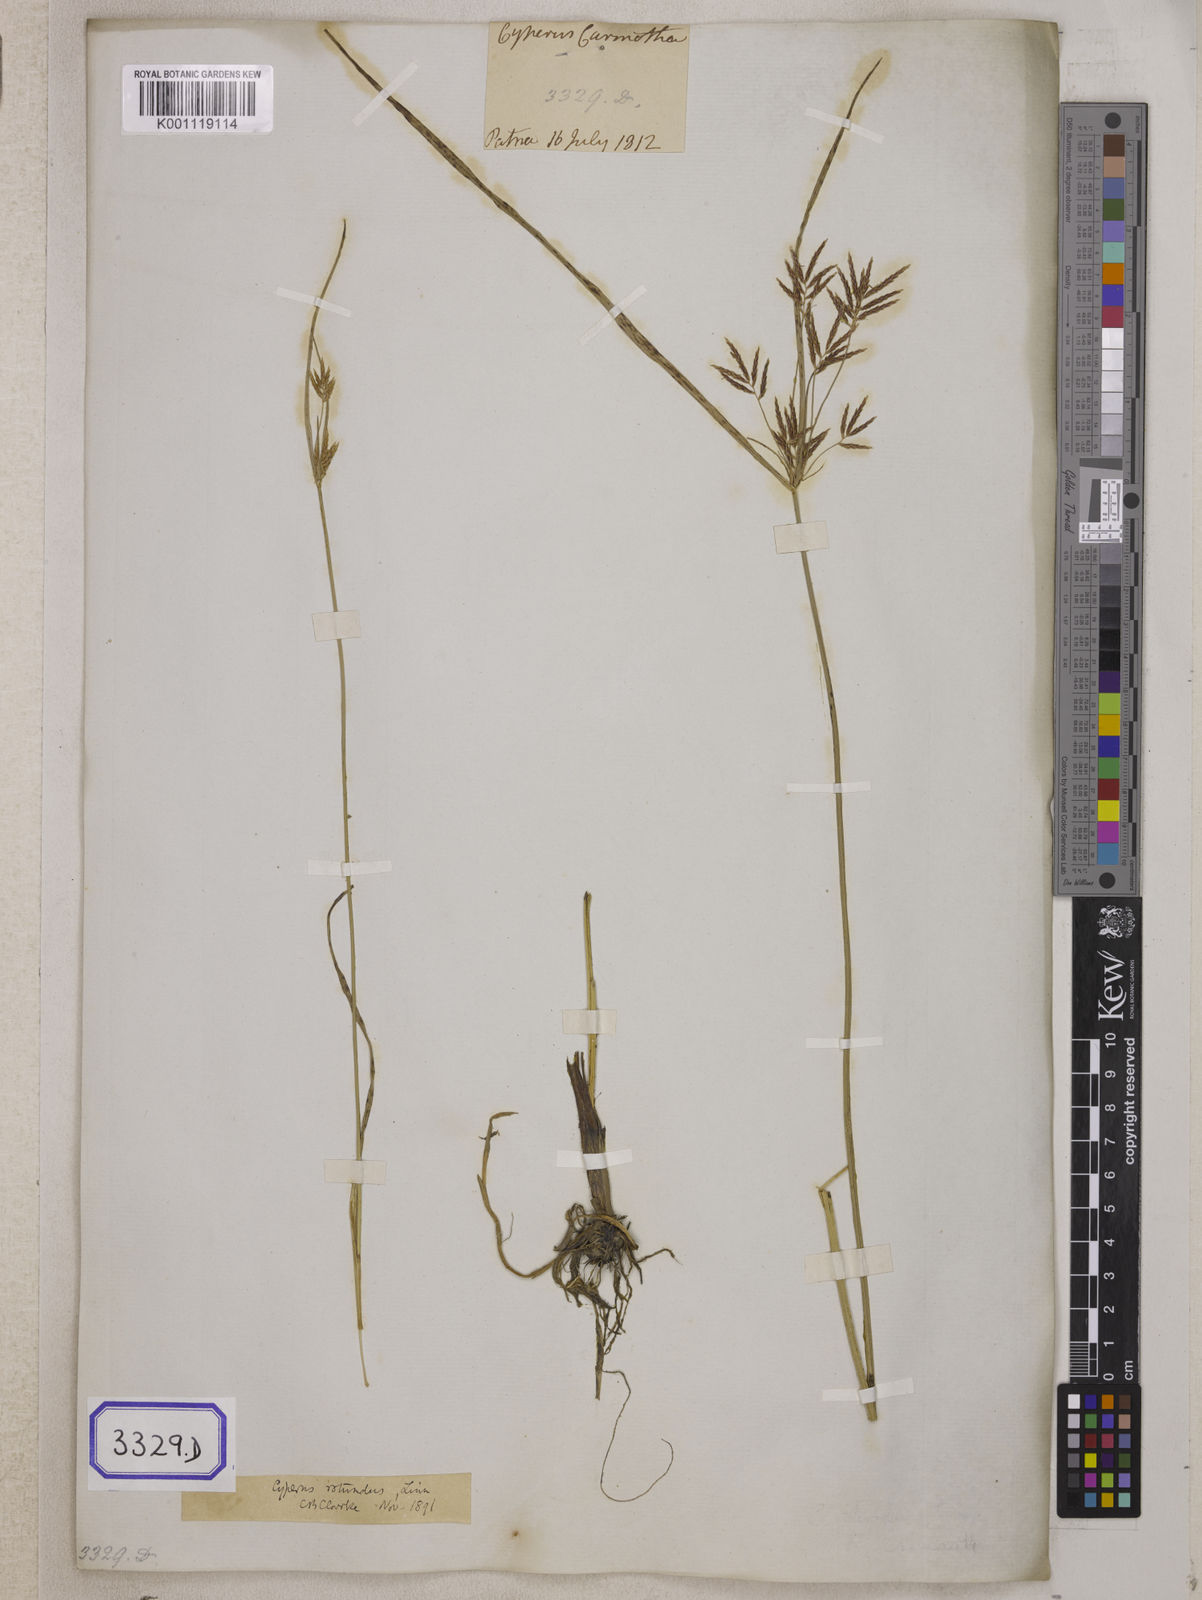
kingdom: Plantae
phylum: Tracheophyta
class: Liliopsida
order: Poales
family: Cyperaceae
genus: Cyperus
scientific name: Cyperus
